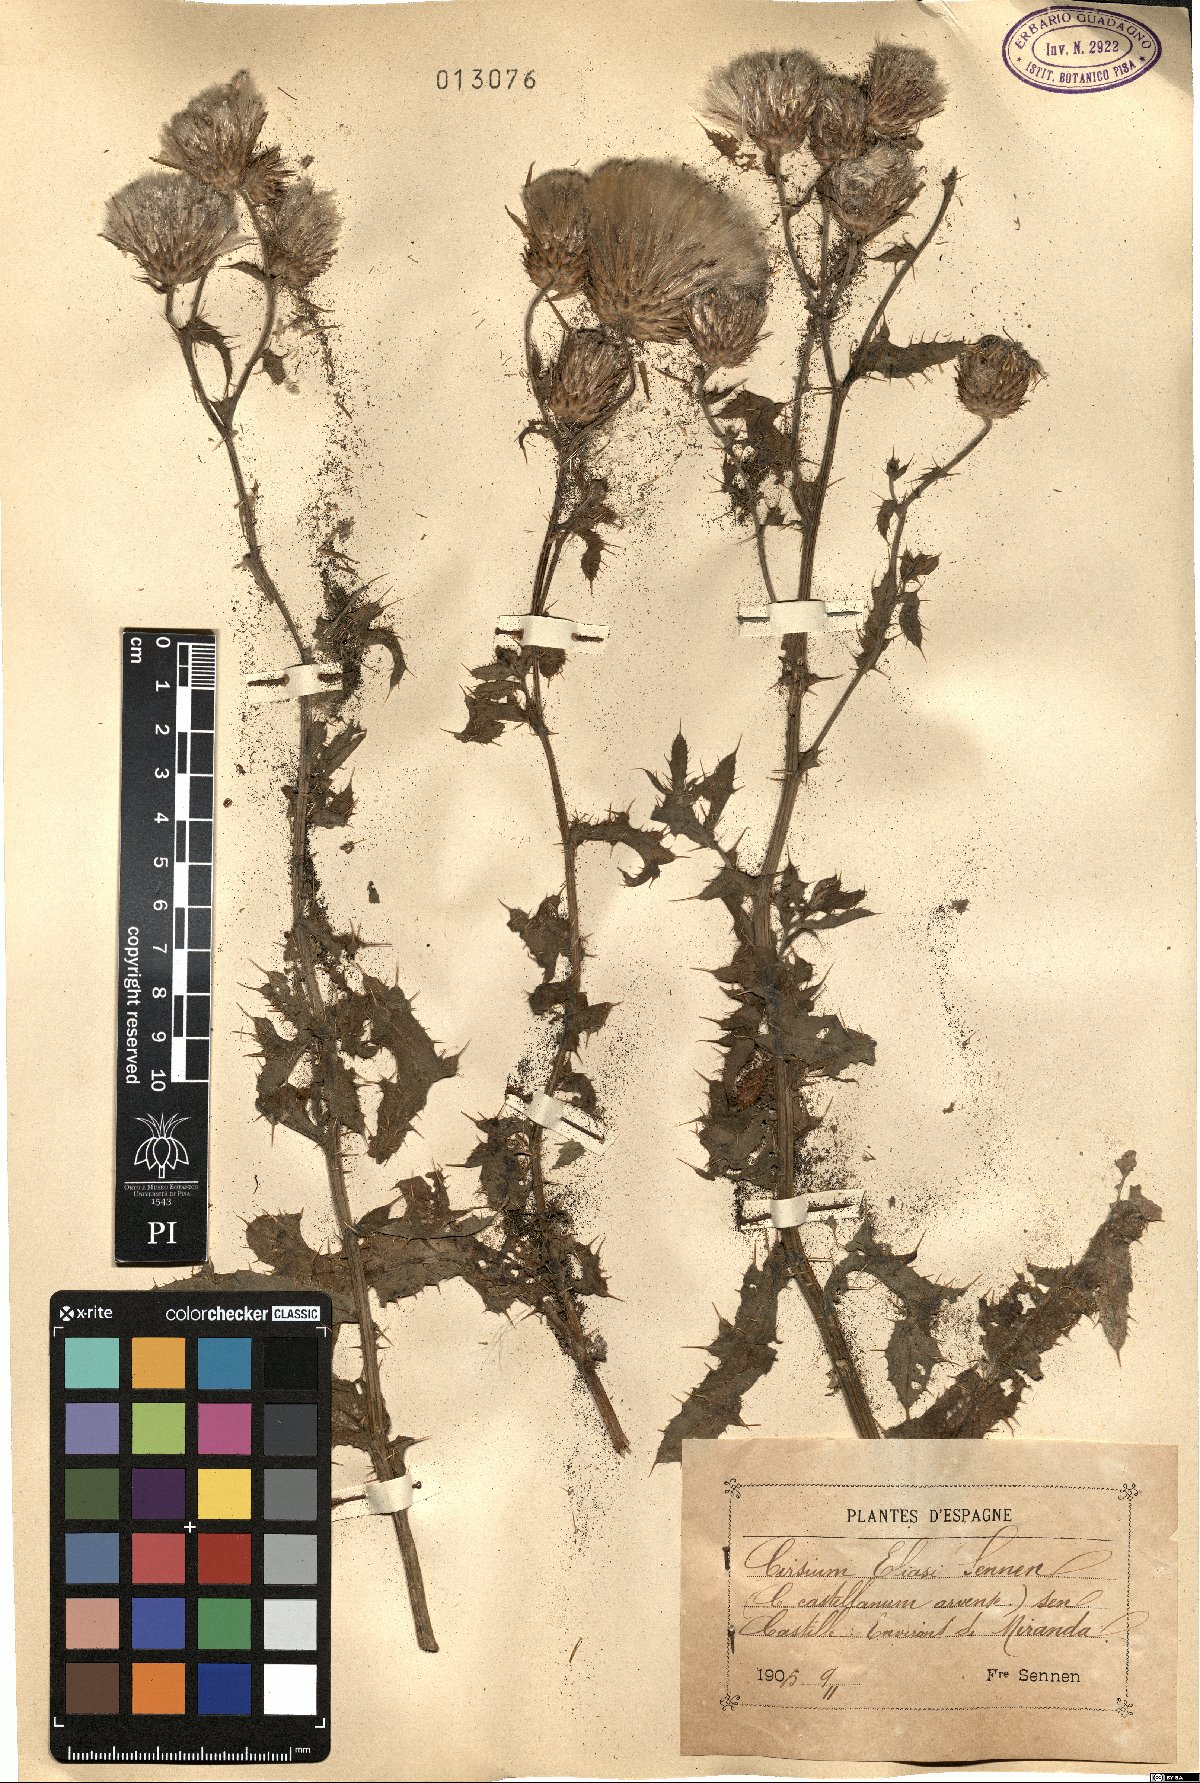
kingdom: Plantae
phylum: Tracheophyta
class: Magnoliopsida
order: Asterales
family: Asteraceae
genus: Cirsium
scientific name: Cirsium eliasii
